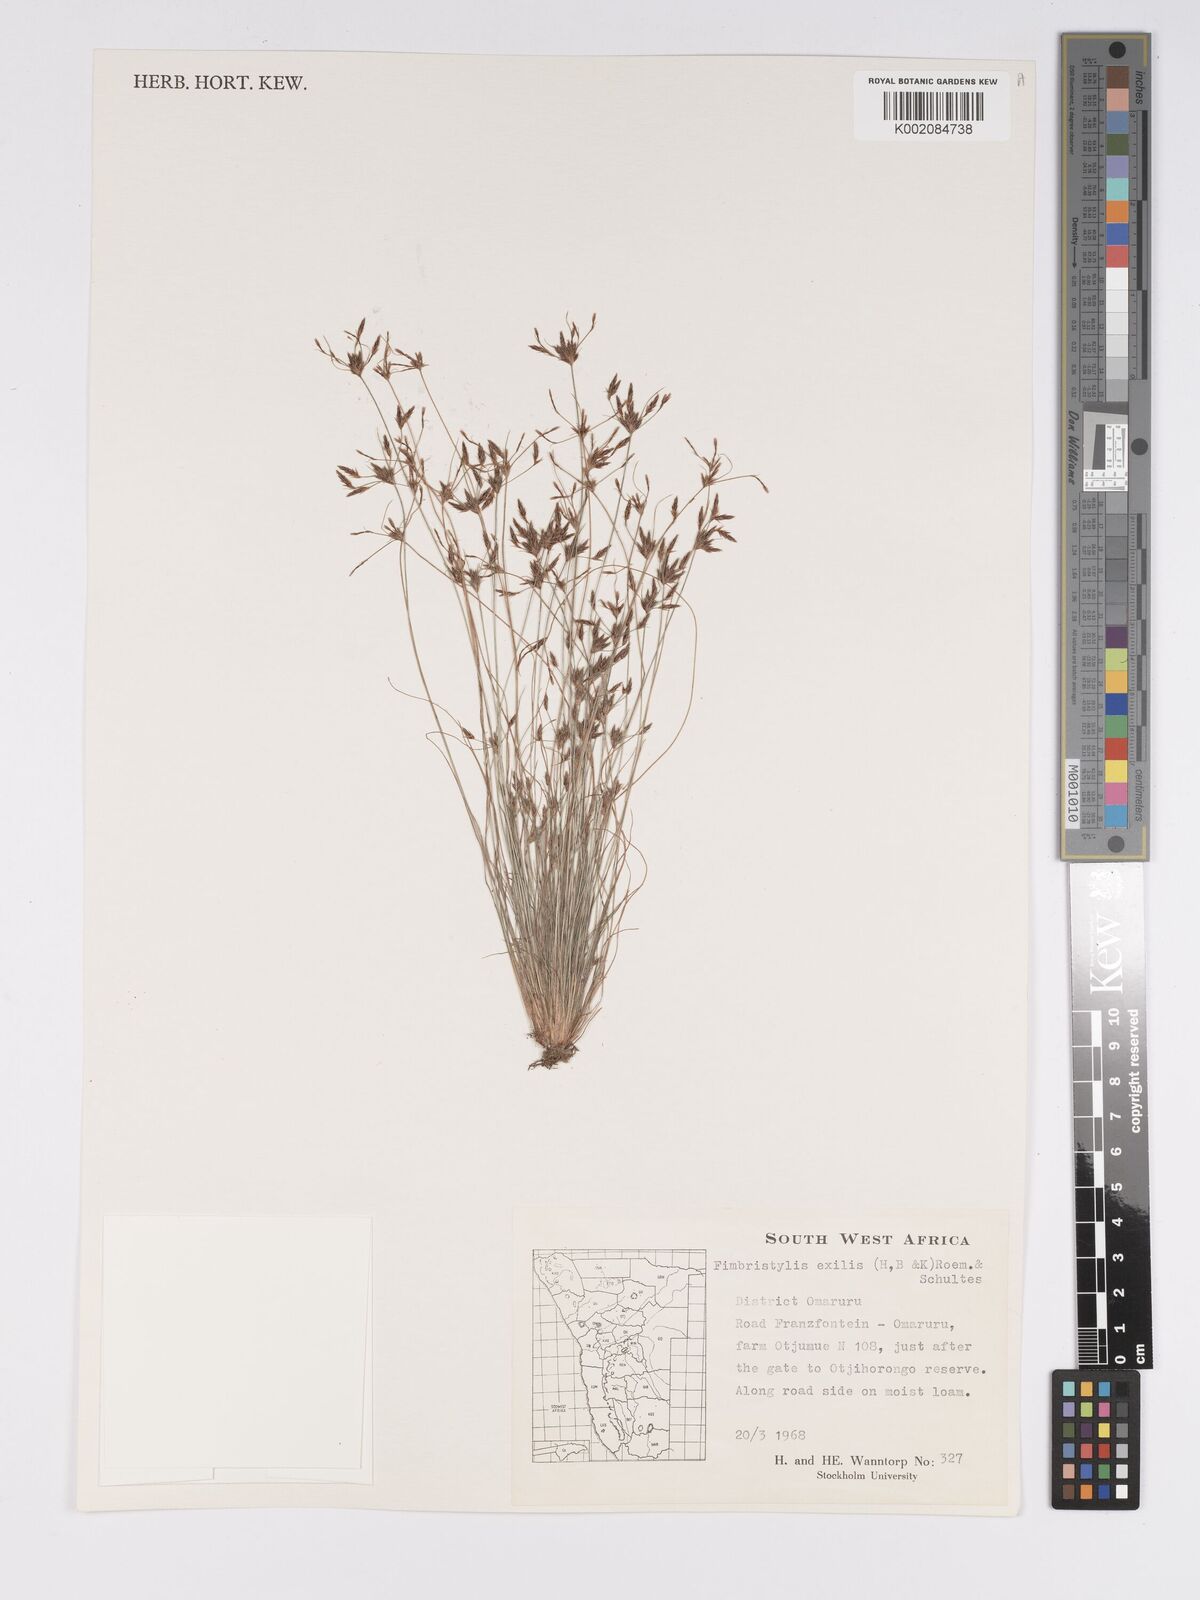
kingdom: Plantae
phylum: Tracheophyta
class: Liliopsida
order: Poales
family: Cyperaceae
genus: Bulbostylis
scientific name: Bulbostylis hispidula
